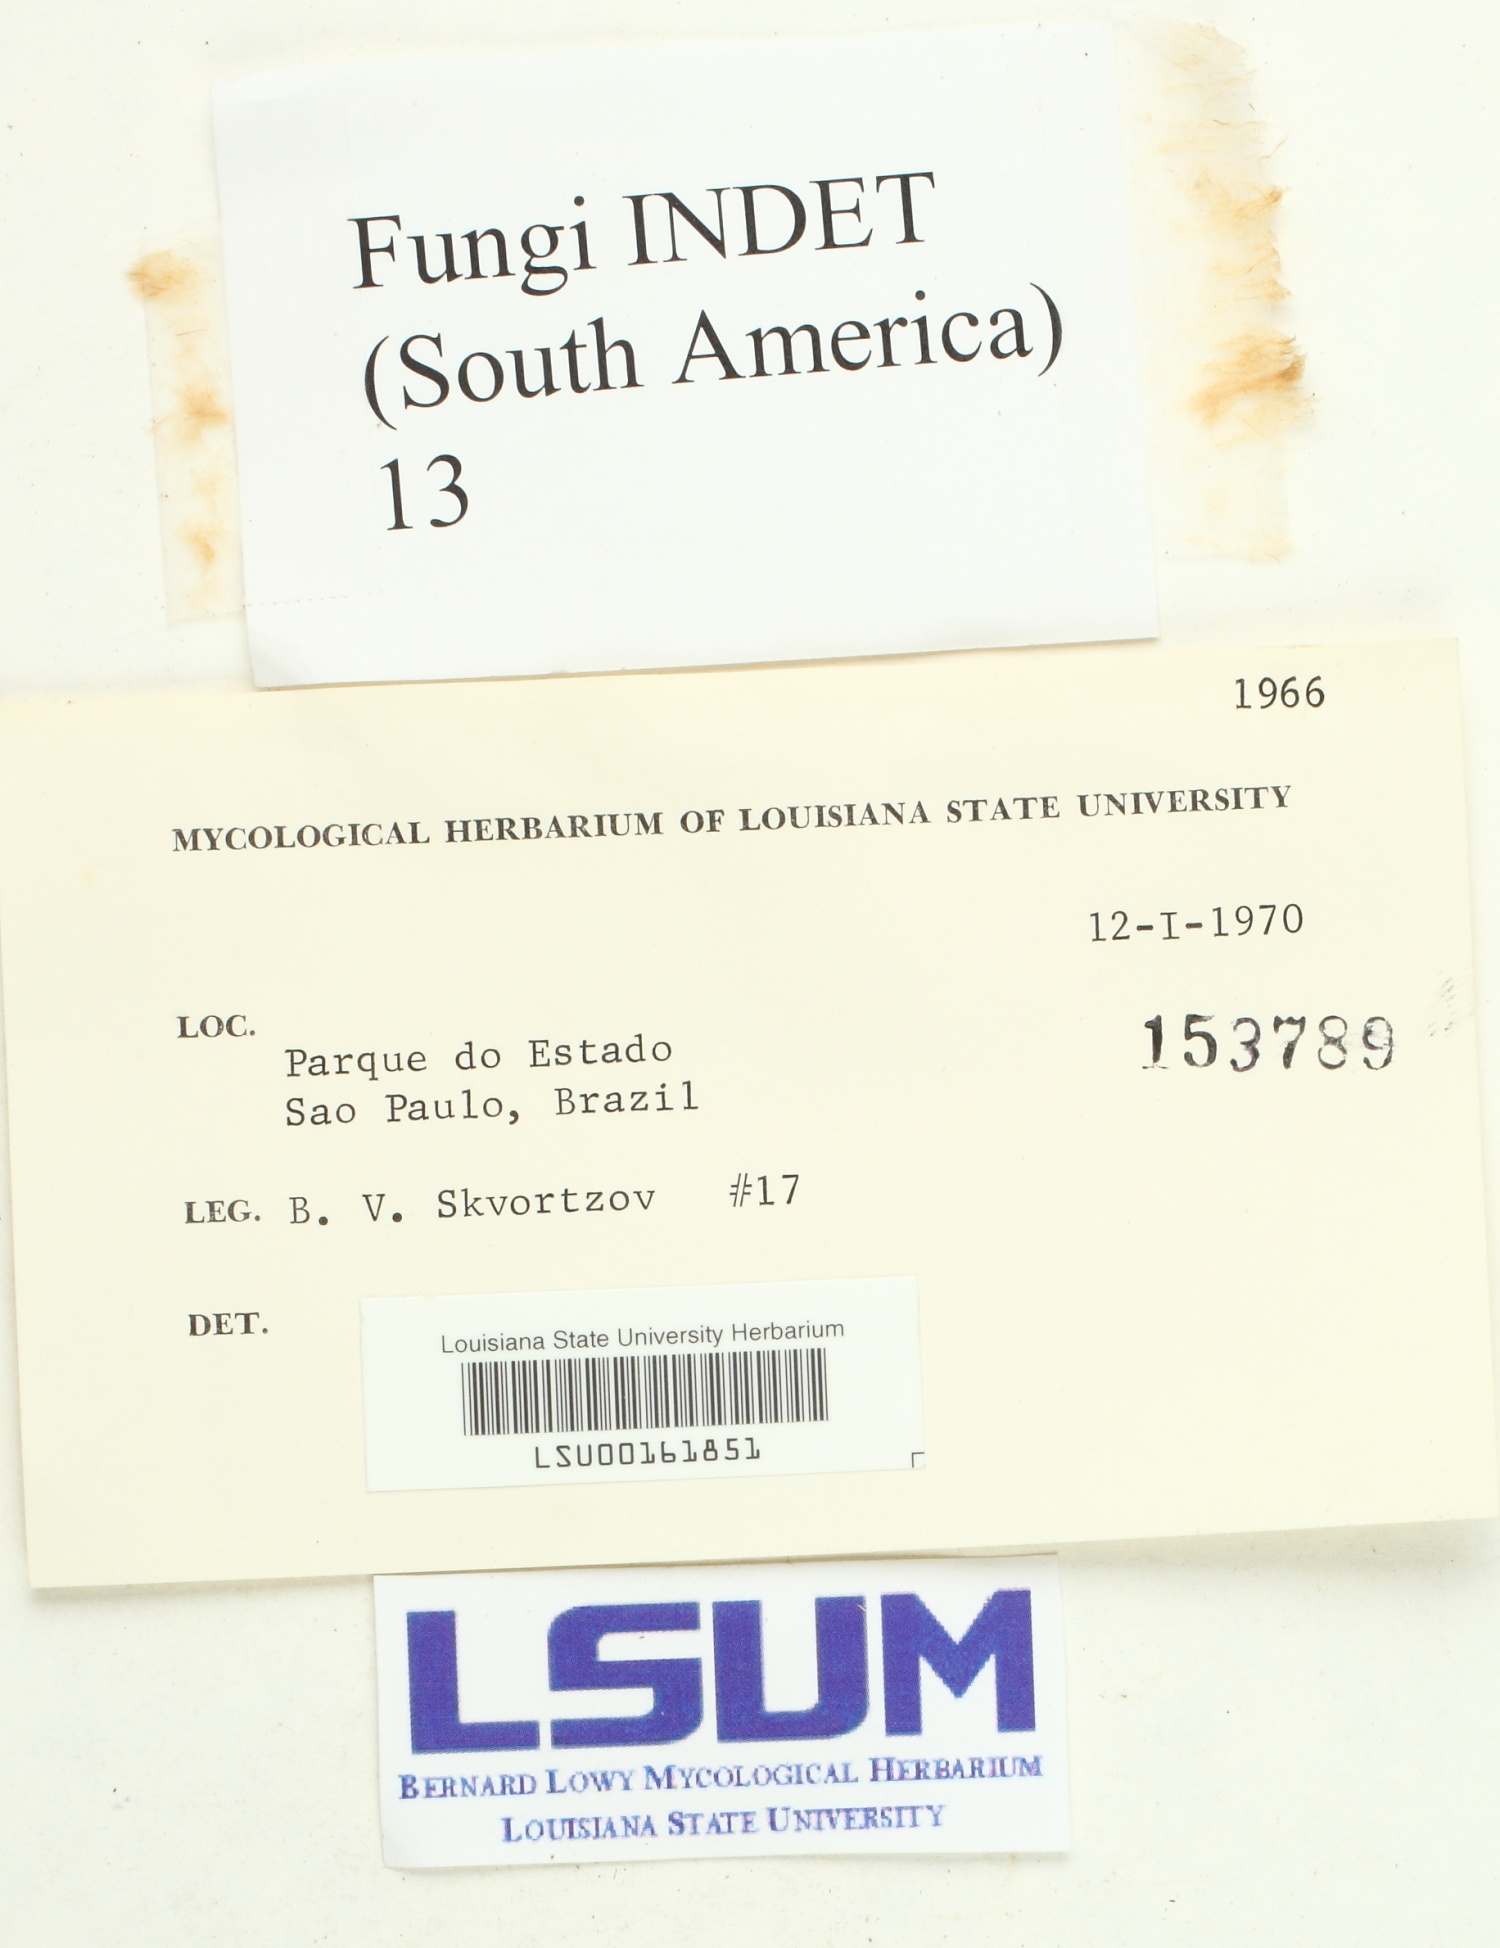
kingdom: Fungi
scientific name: Fungi
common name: Fungi
